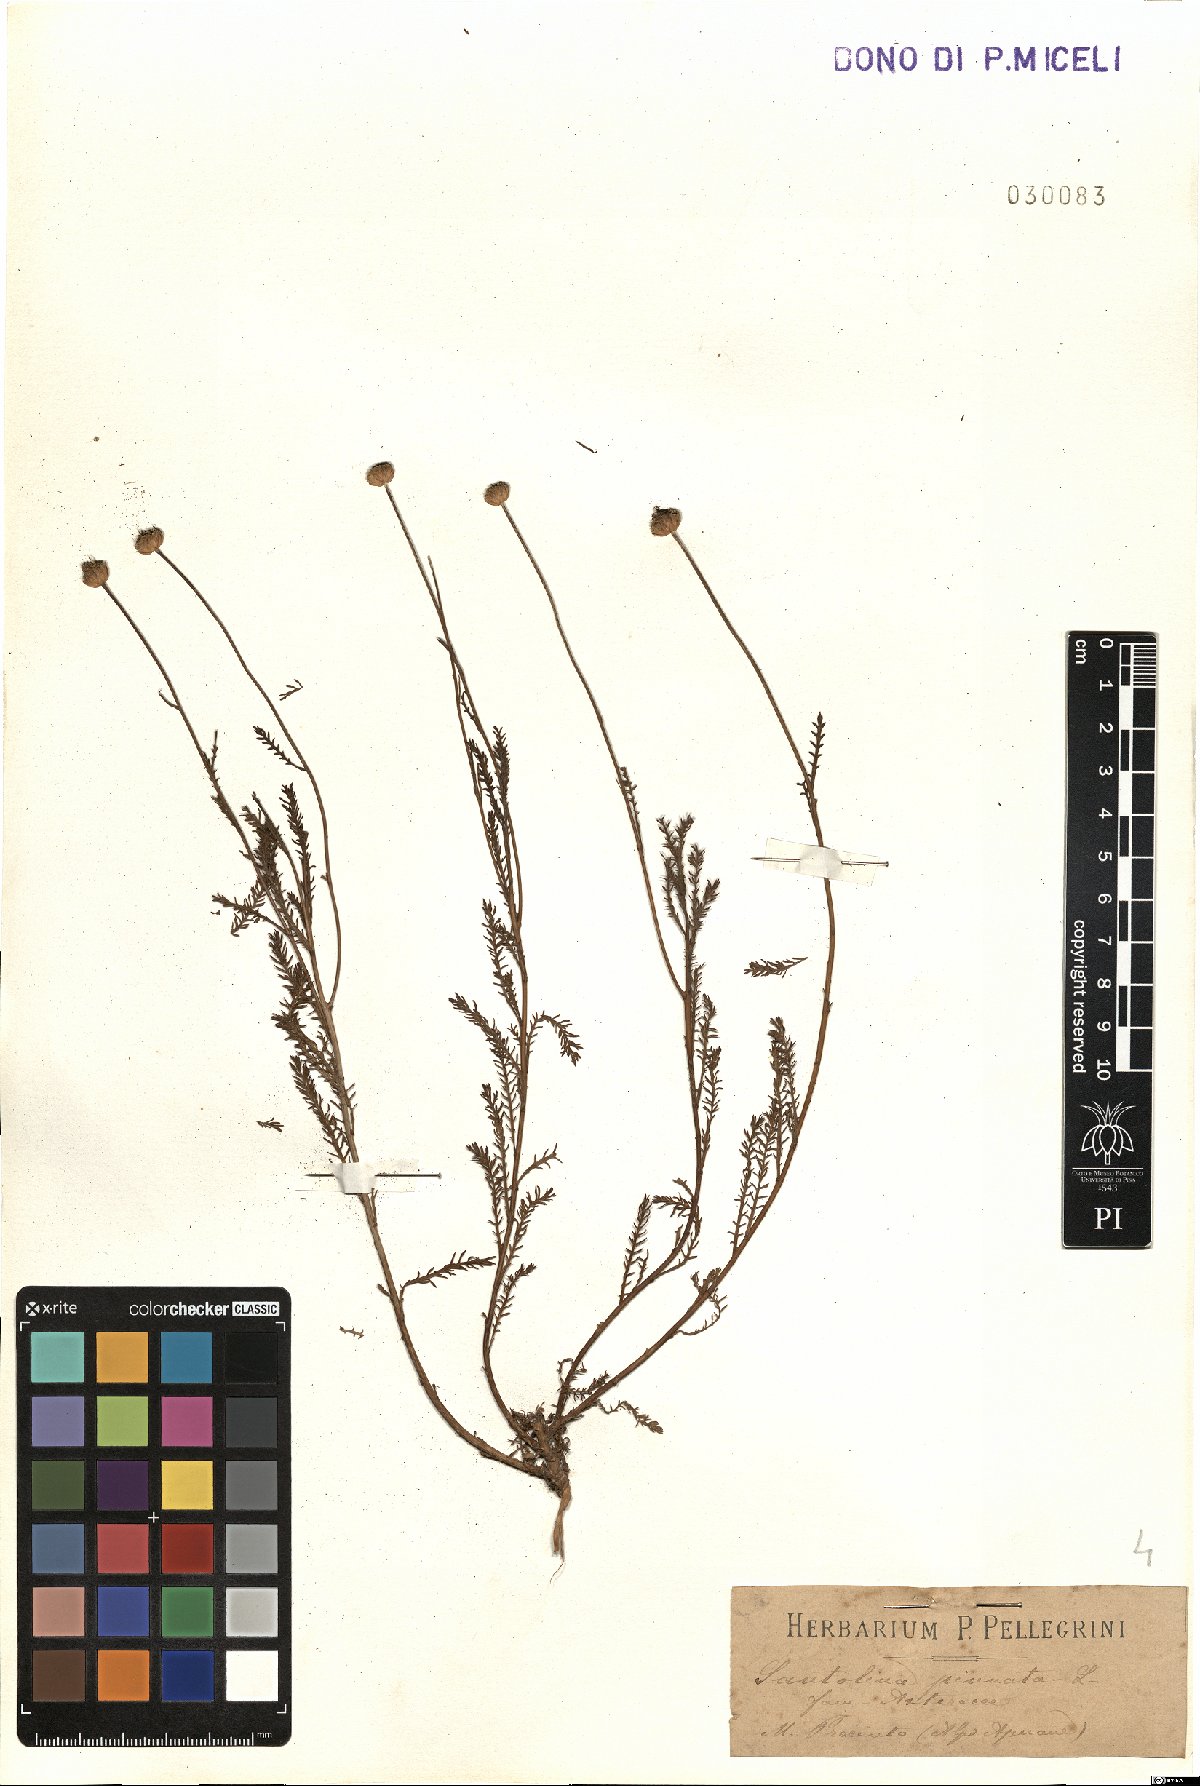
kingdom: Plantae
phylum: Tracheophyta
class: Magnoliopsida
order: Asterales
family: Asteraceae
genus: Santolina
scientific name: Santolina pinnata
